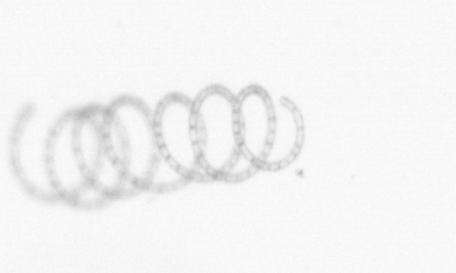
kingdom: Chromista
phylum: Ochrophyta
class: Bacillariophyceae
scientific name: Bacillariophyceae
